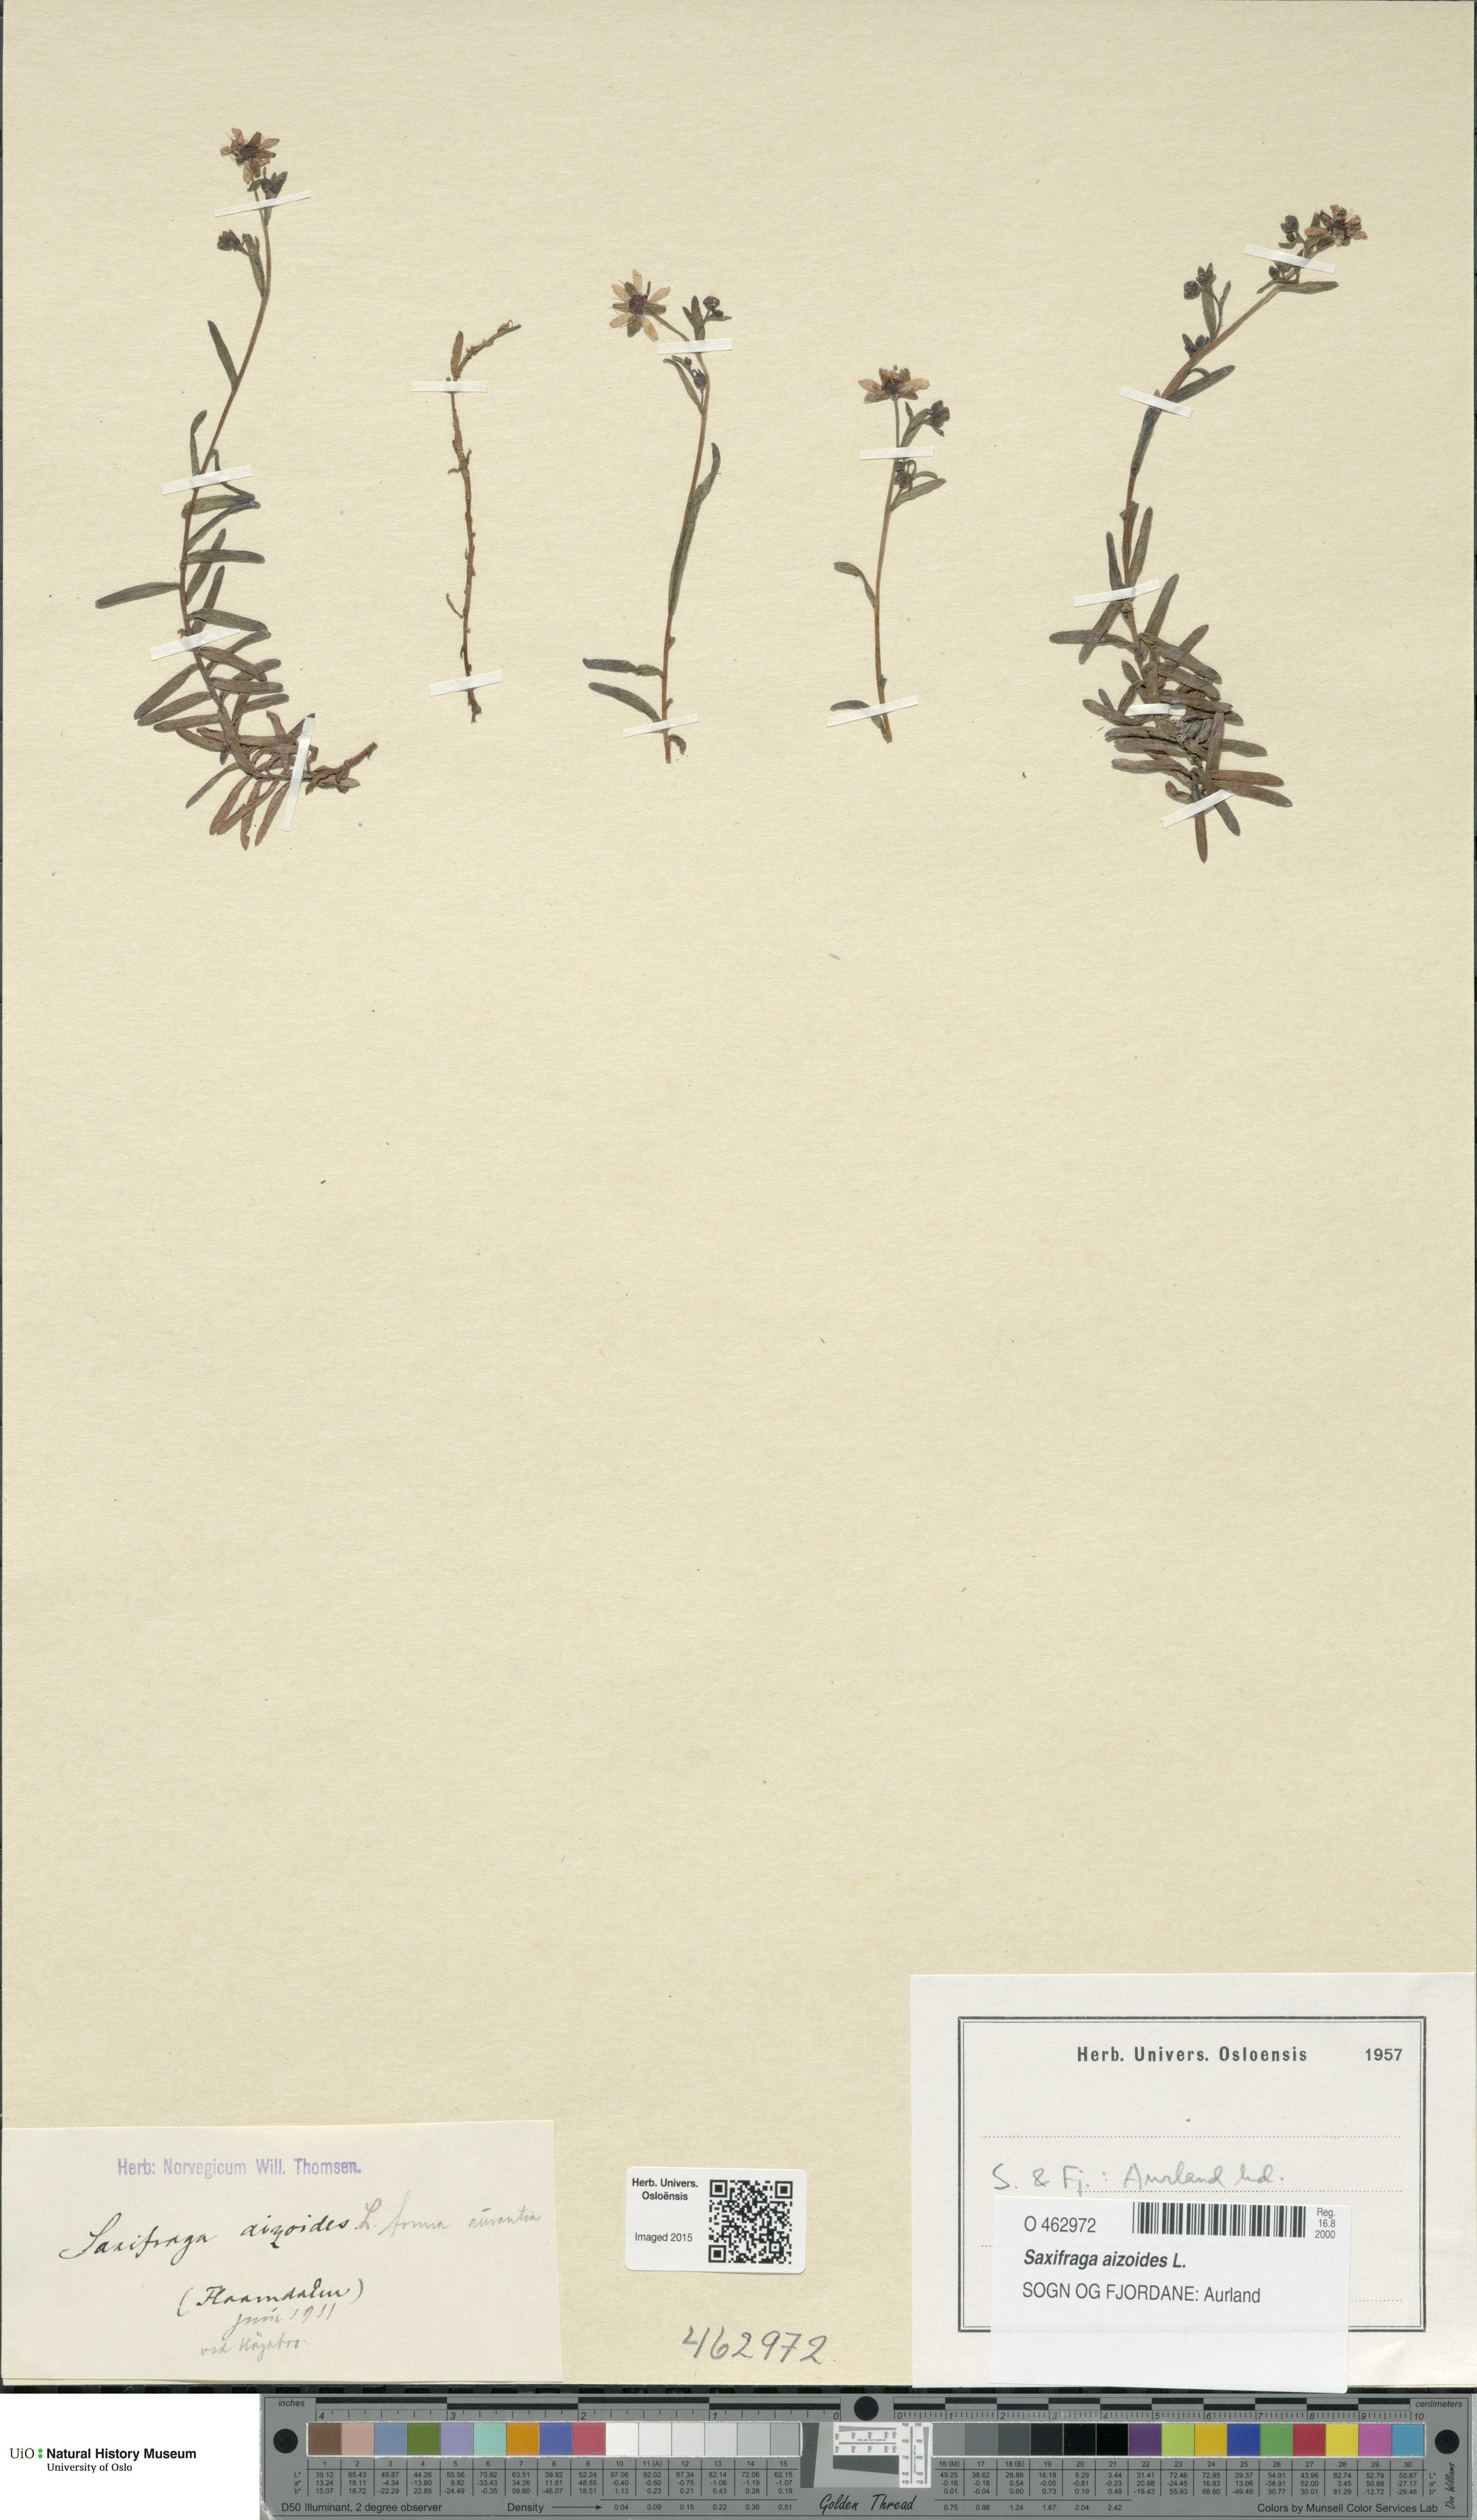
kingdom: Plantae
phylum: Tracheophyta
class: Magnoliopsida
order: Saxifragales
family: Saxifragaceae
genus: Saxifraga
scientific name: Saxifraga aizoides
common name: Yellow mountain saxifrage
